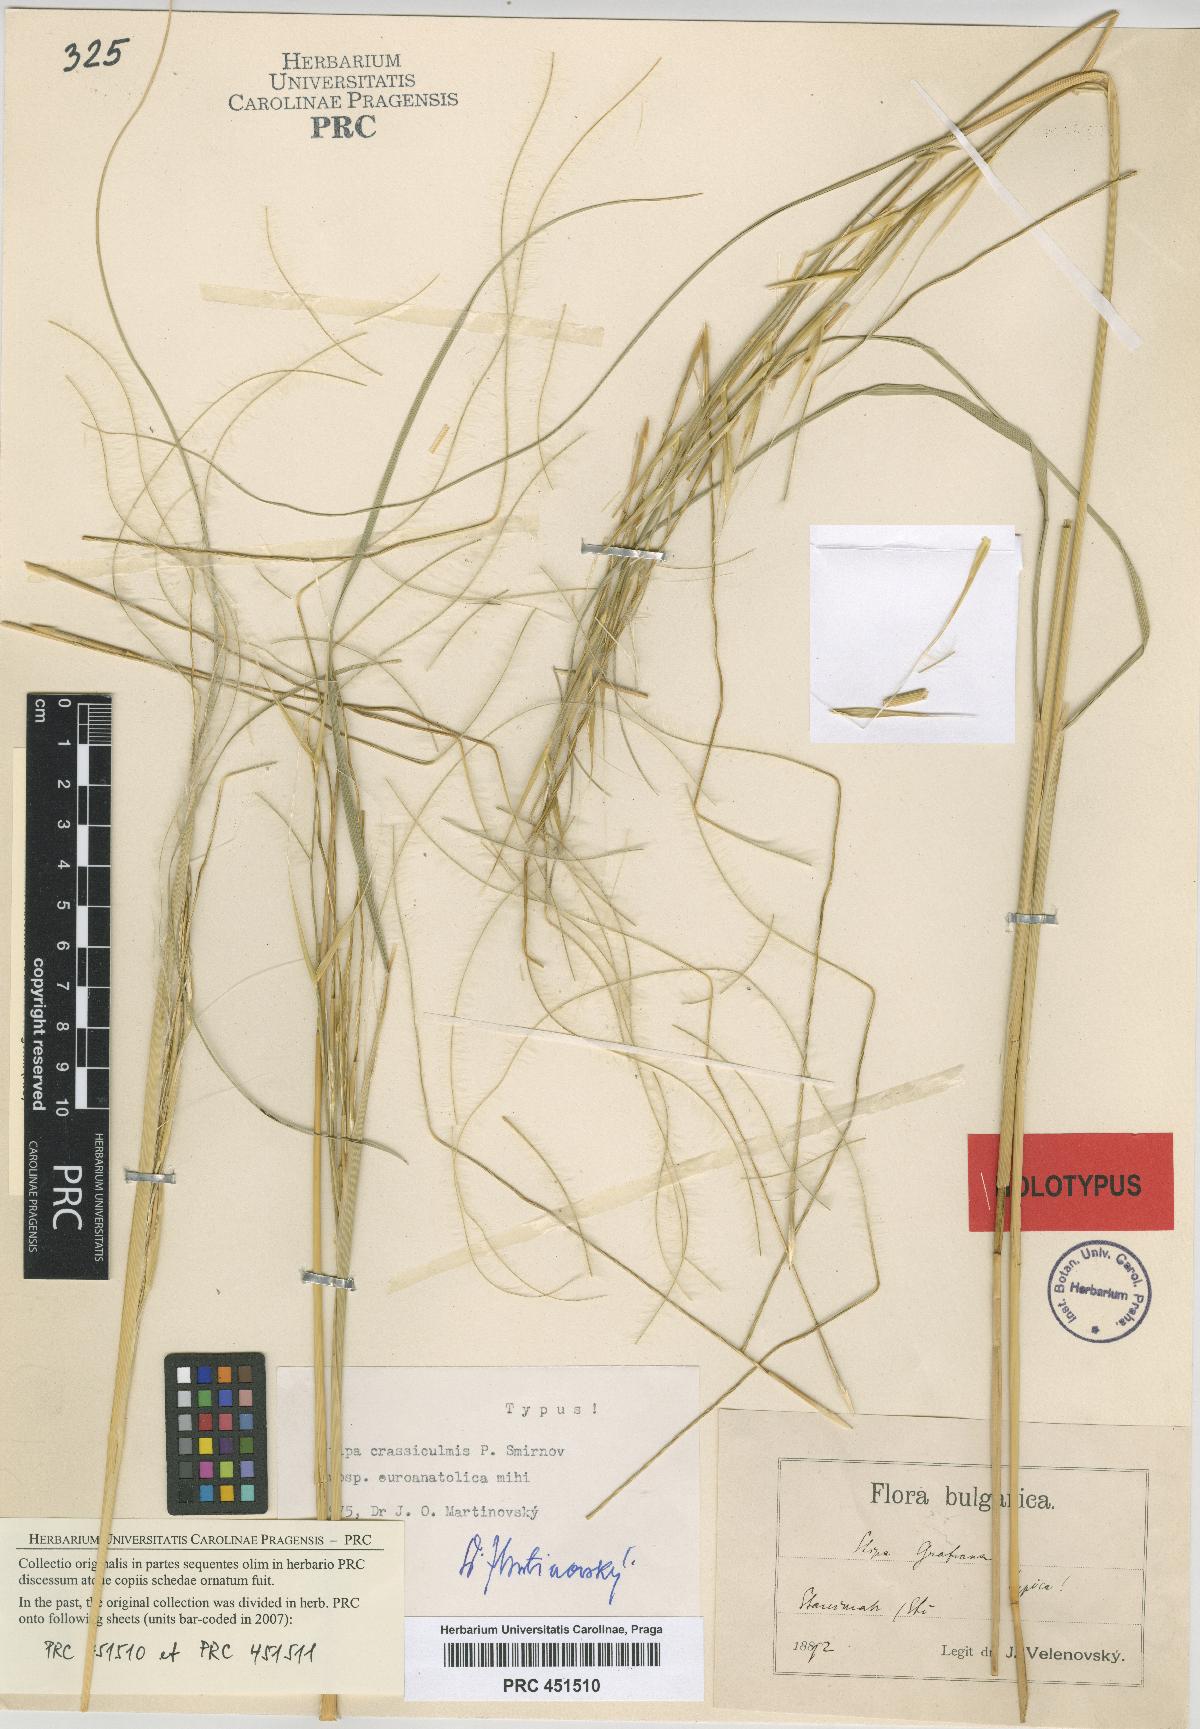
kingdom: Plantae
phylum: Tracheophyta
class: Liliopsida
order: Poales
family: Poaceae
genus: Stipa
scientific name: Stipa pulcherrima
